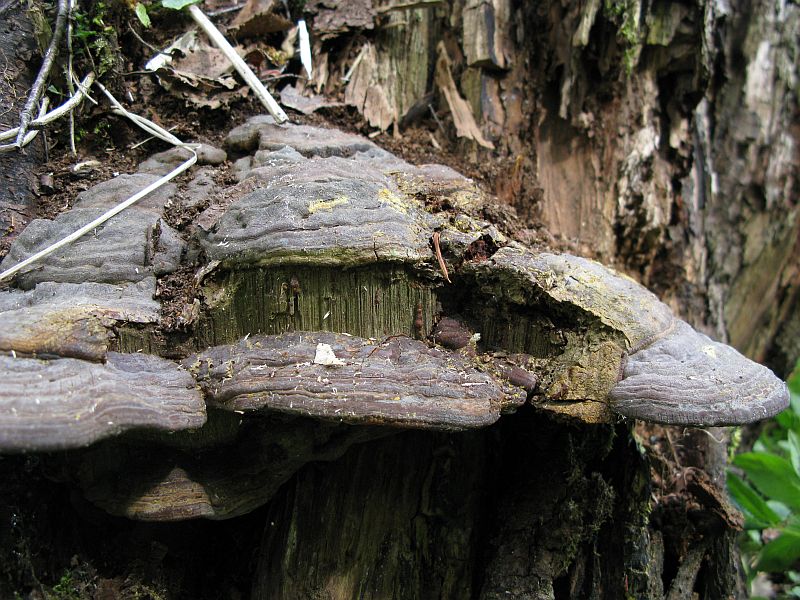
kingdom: Fungi
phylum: Basidiomycota
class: Agaricomycetes
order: Polyporales
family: Polyporaceae
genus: Ganoderma
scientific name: Ganoderma pfeifferi
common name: kobberrød lakporesvamp
